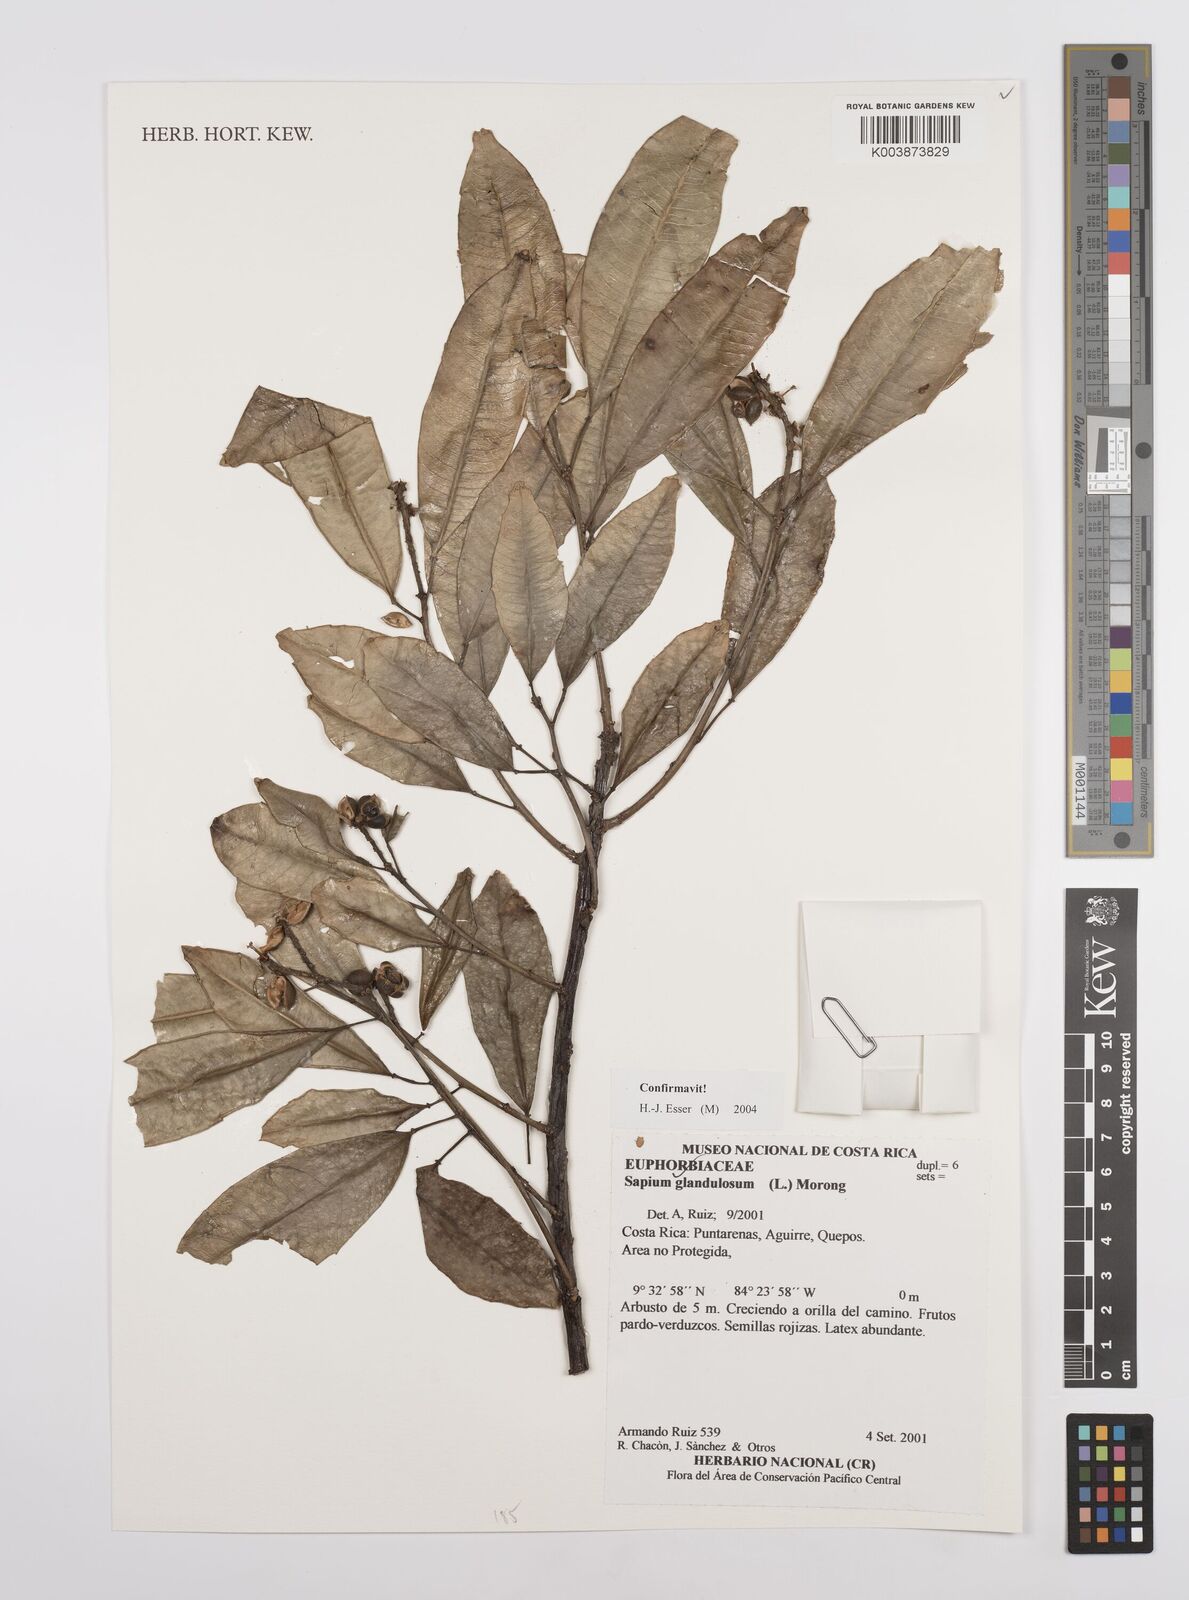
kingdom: Plantae
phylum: Tracheophyta
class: Magnoliopsida
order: Malpighiales
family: Euphorbiaceae
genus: Sapium
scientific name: Sapium glandulosum
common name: Milktree
